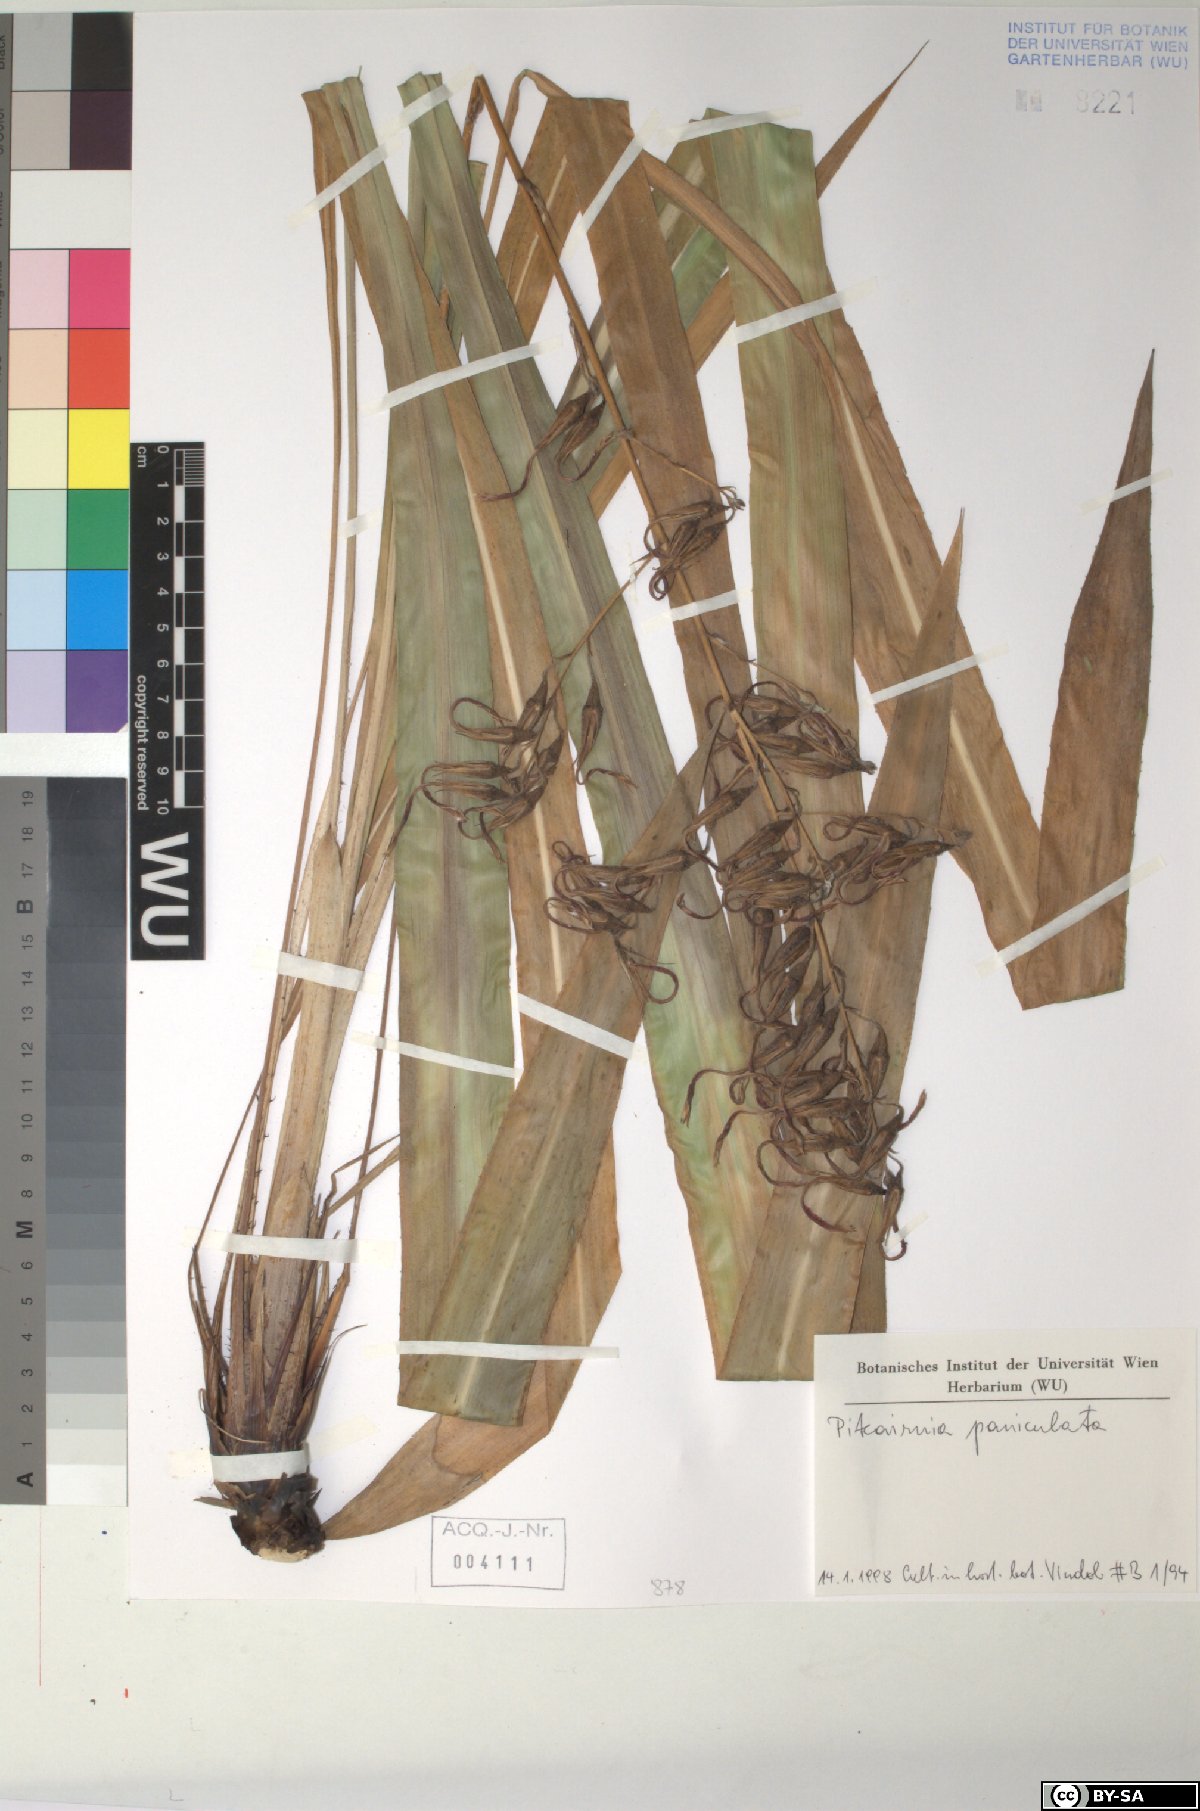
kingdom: Plantae
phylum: Tracheophyta
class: Liliopsida
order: Poales
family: Bromeliaceae
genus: Pitcairnia
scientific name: Pitcairnia paniculata
